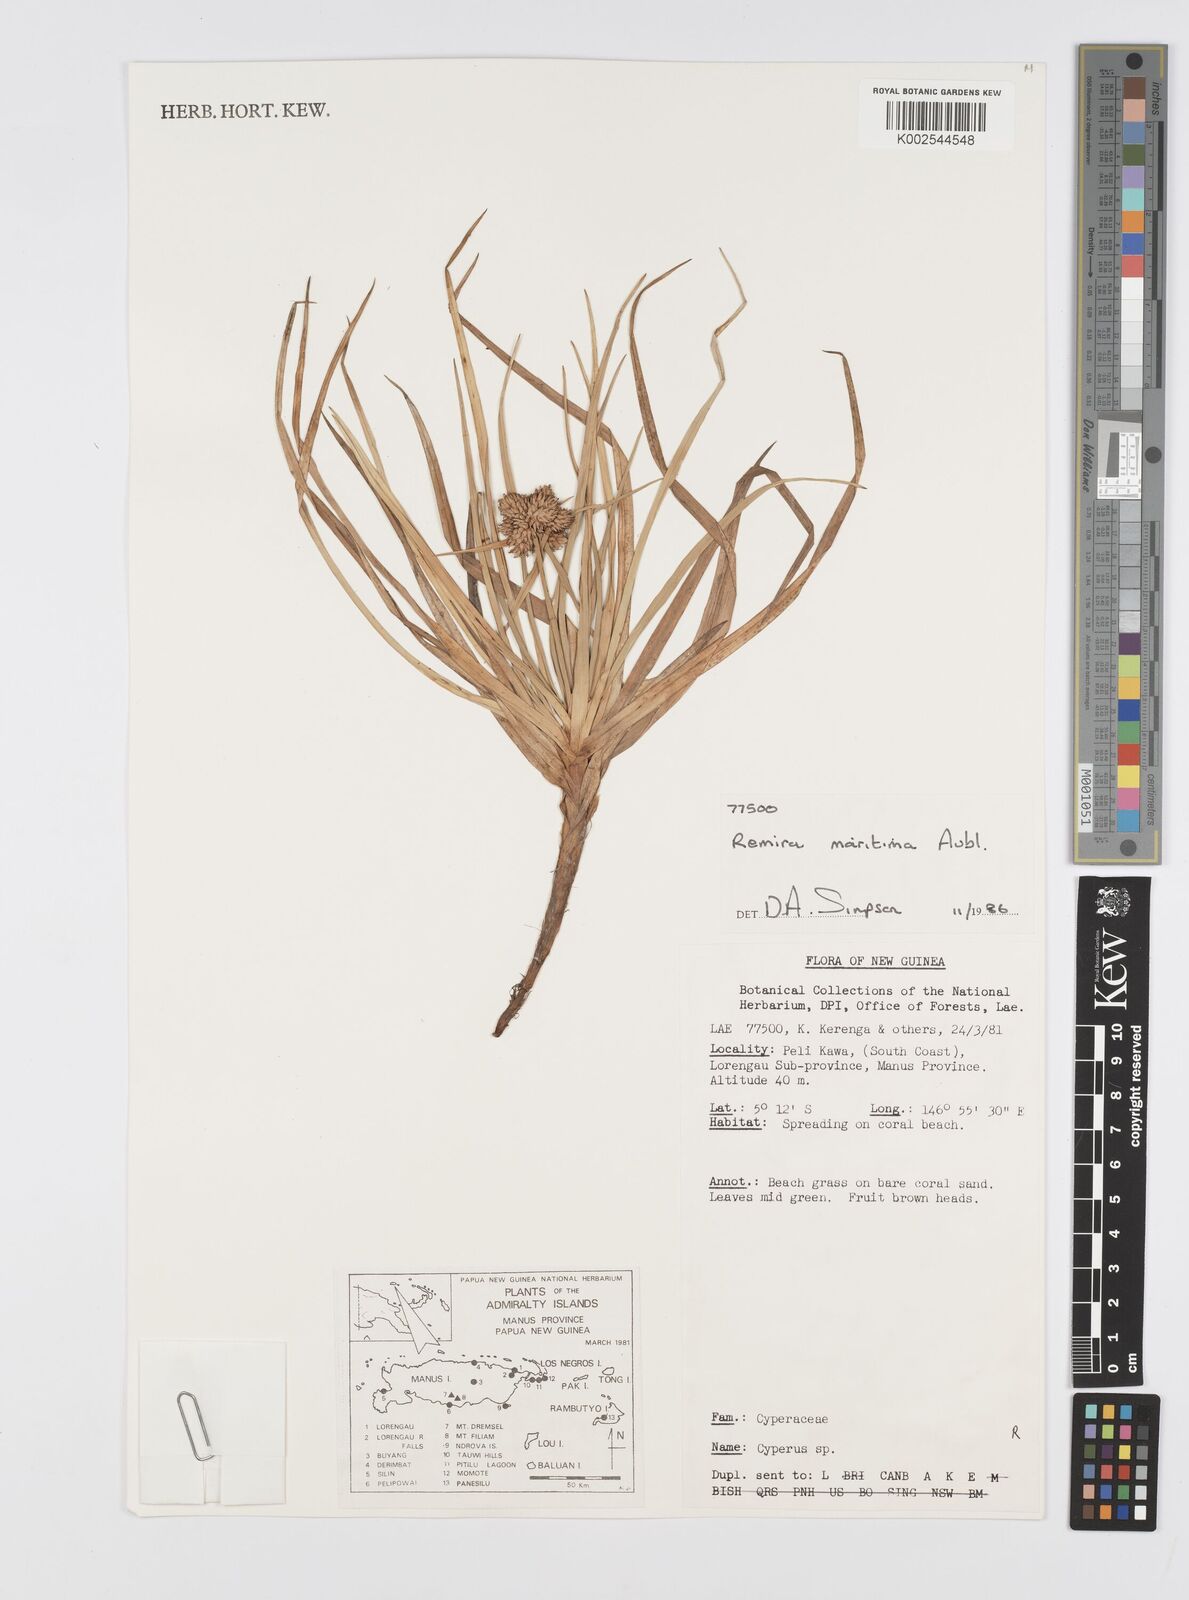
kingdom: Plantae
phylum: Tracheophyta
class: Liliopsida
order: Poales
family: Cyperaceae
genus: Cyperus
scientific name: Cyperus
